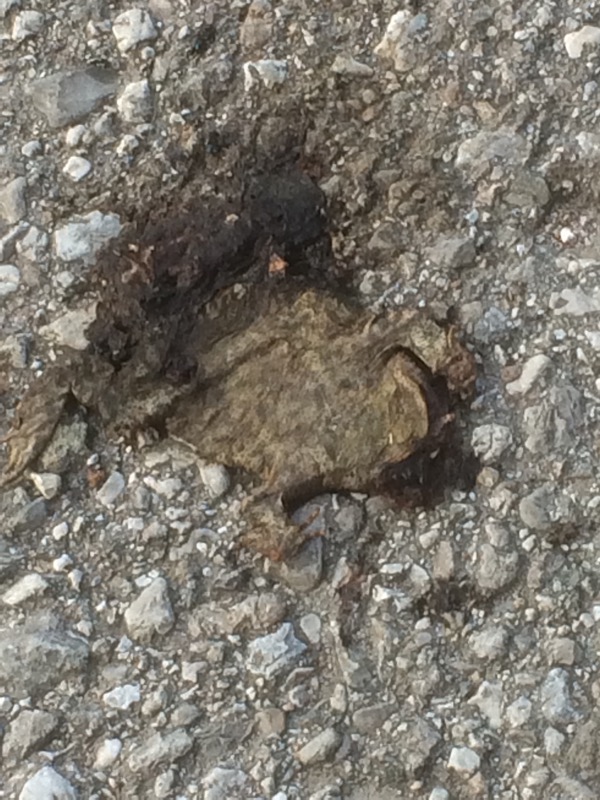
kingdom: Animalia
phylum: Chordata
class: Amphibia
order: Anura
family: Bufonidae
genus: Bufo
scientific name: Bufo bufo
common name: Common toad
